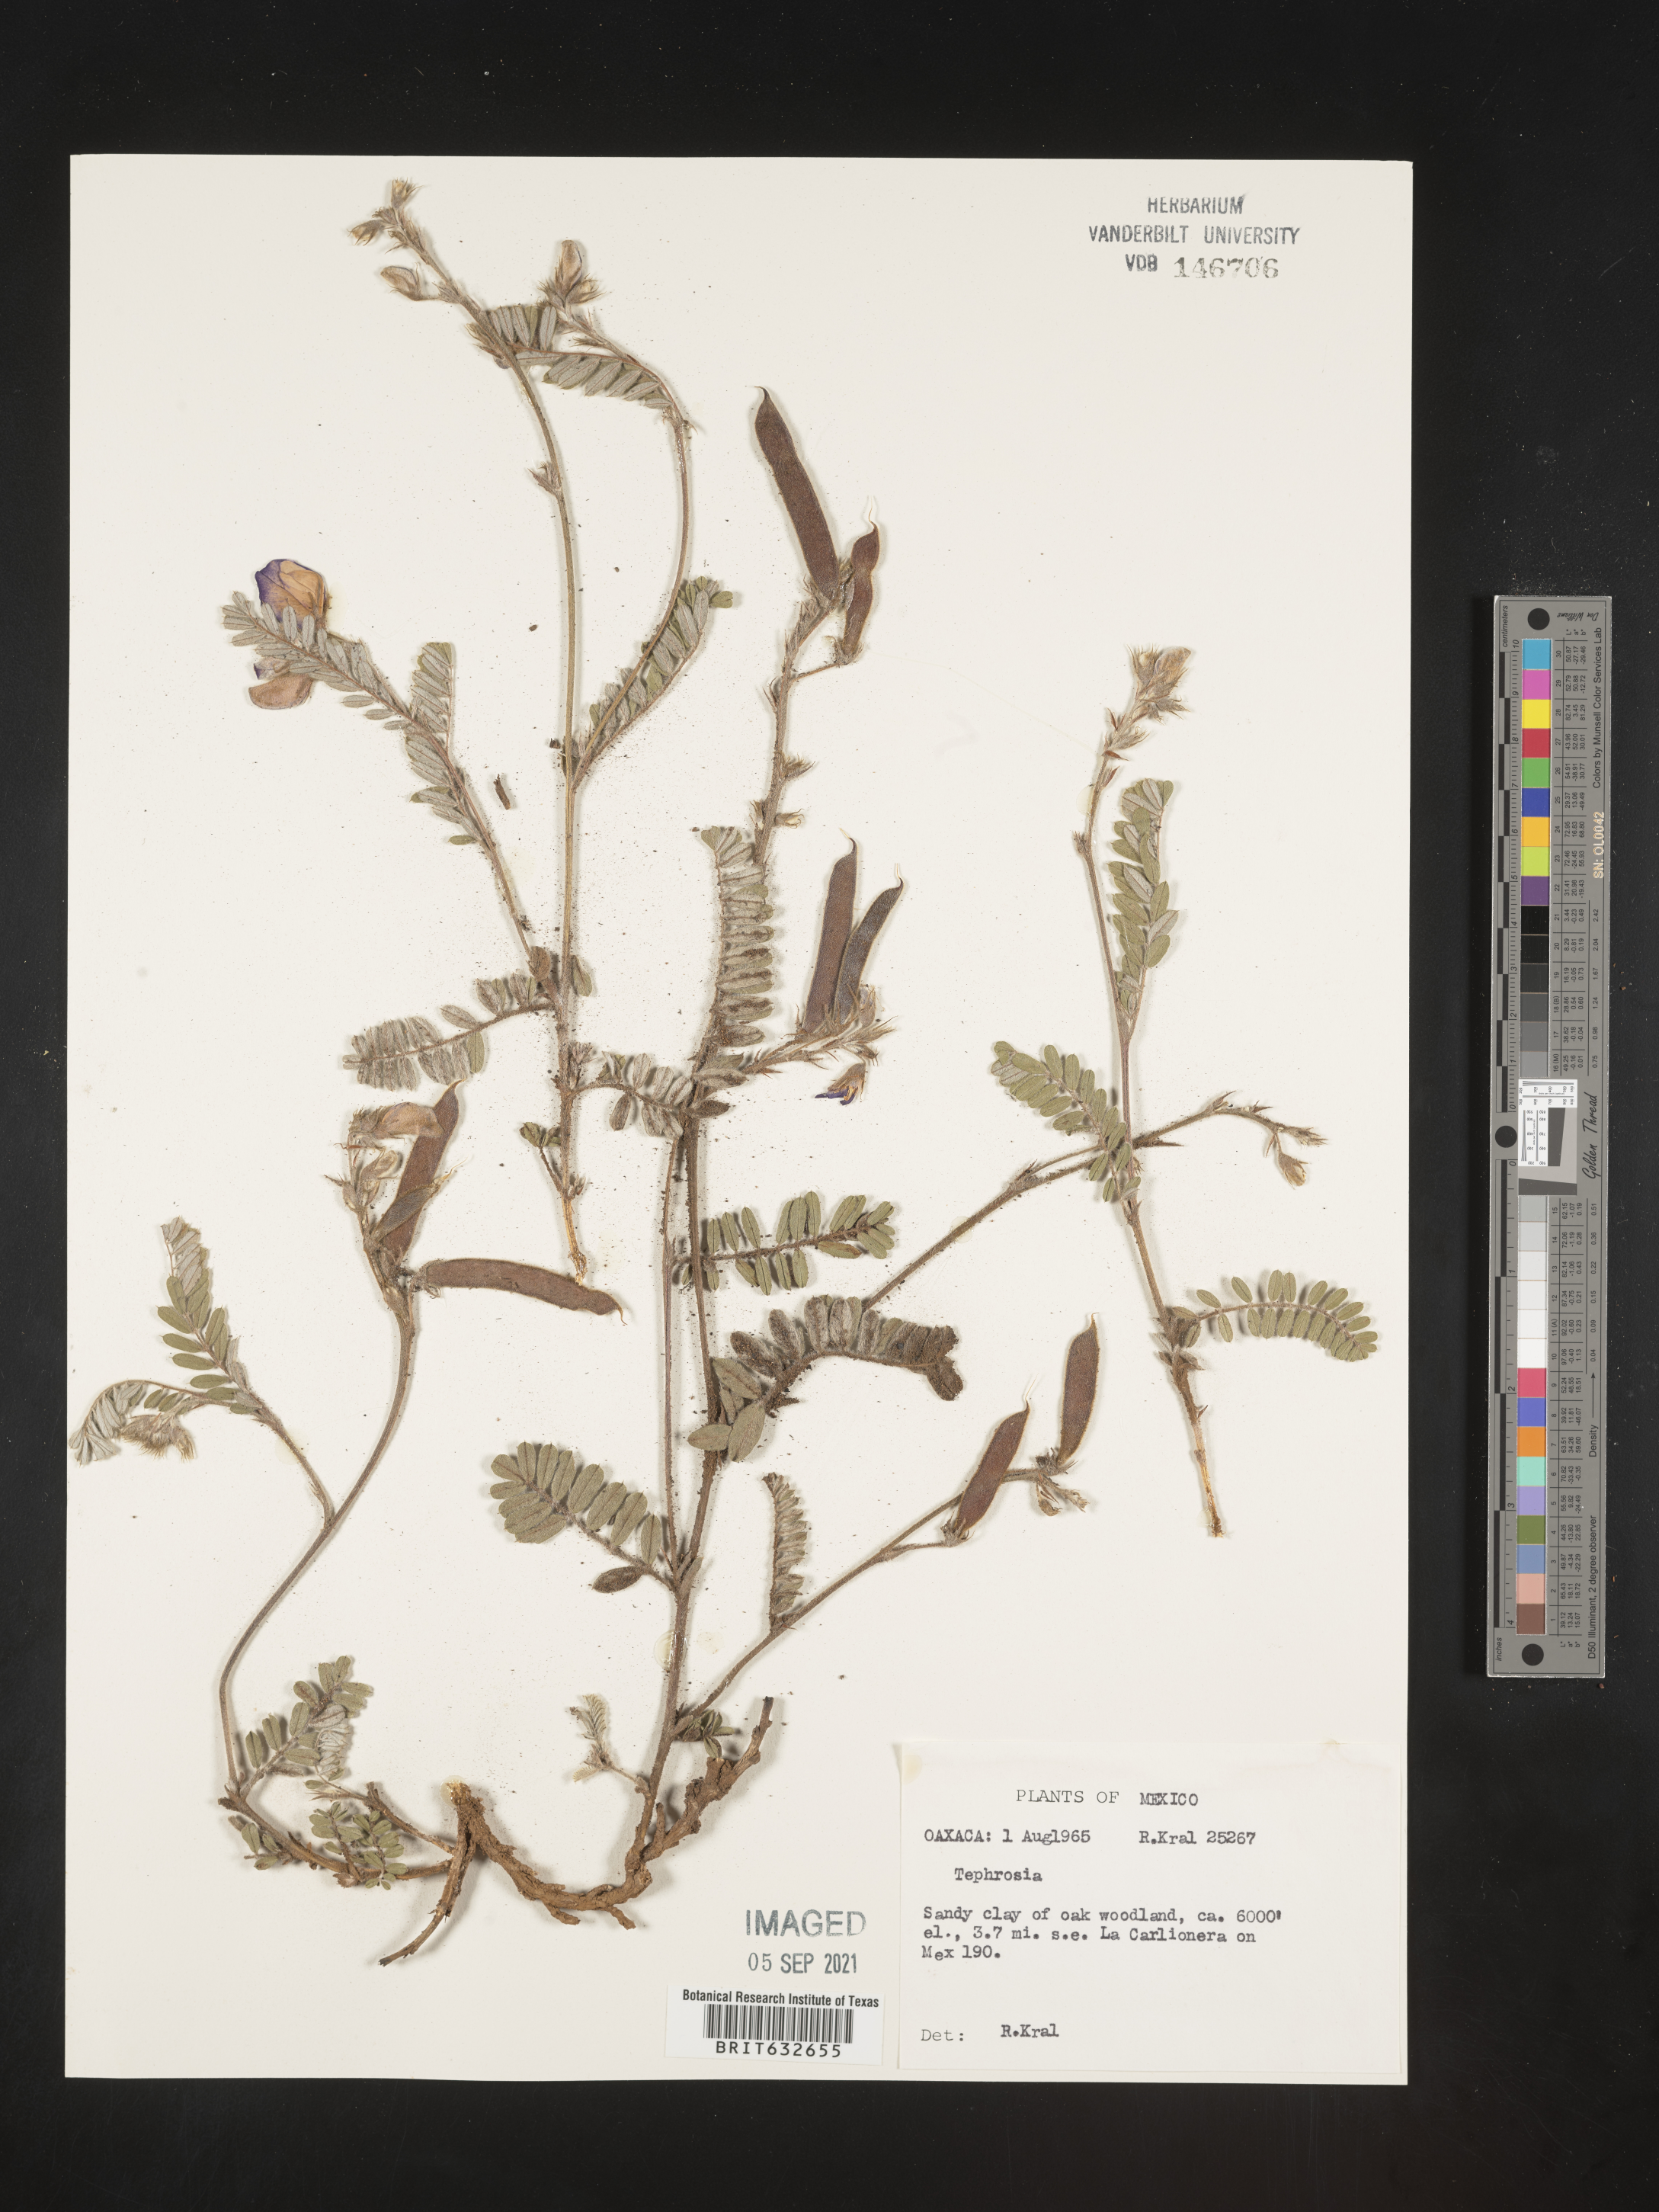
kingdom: Plantae
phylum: Tracheophyta
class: Magnoliopsida
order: Fabales
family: Fabaceae
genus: Tephrosia
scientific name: Tephrosia
